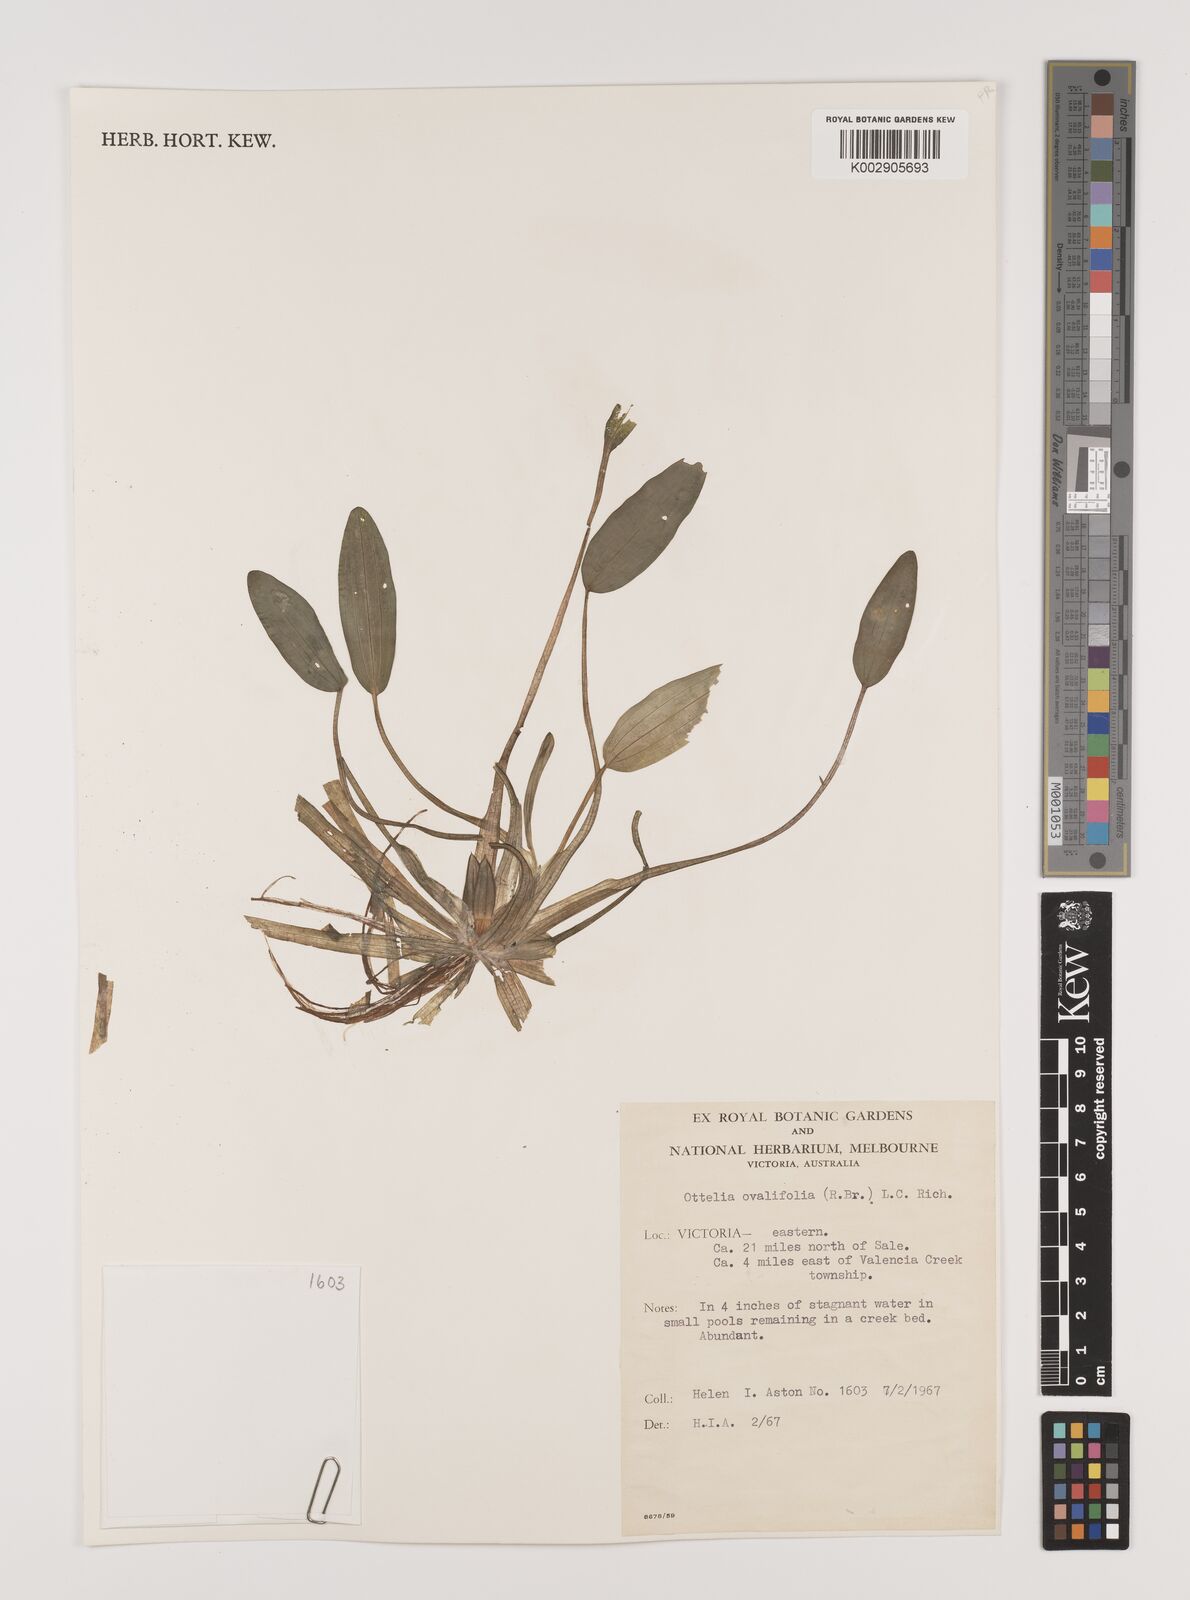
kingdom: Plantae
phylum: Tracheophyta
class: Liliopsida
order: Alismatales
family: Hydrocharitaceae
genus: Ottelia
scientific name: Ottelia ovalifolia
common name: Swamp-lily
